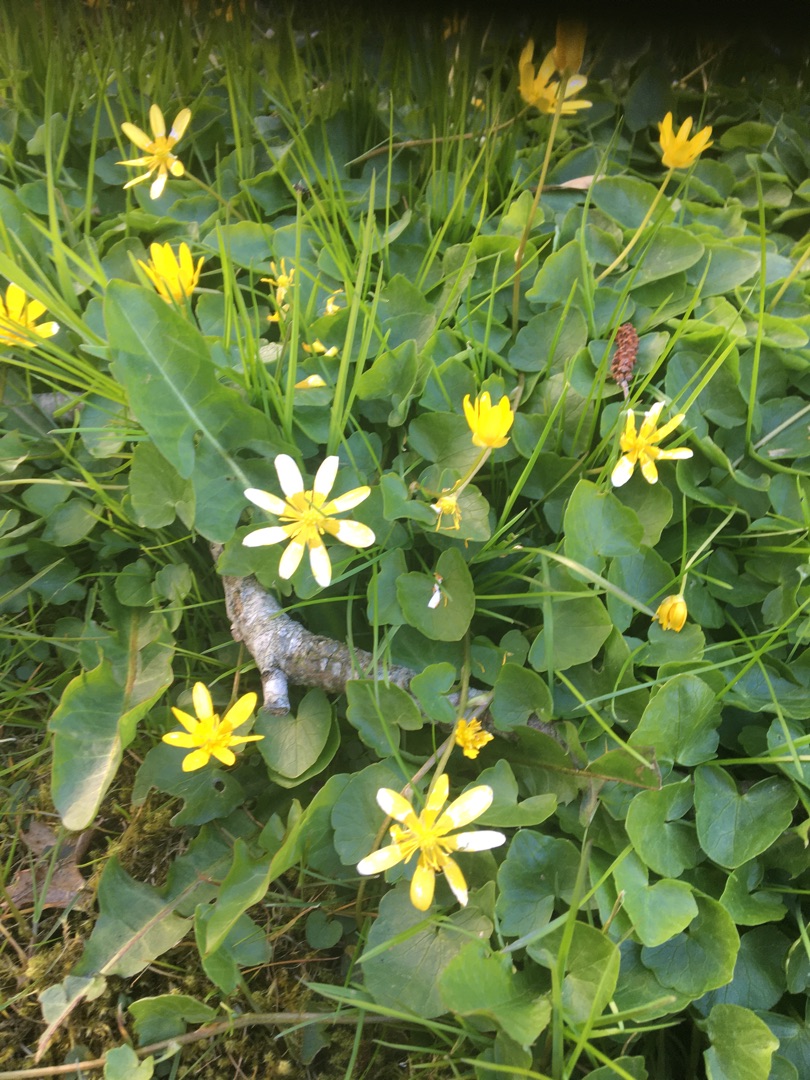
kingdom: Plantae
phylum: Tracheophyta
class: Magnoliopsida
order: Ranunculales
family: Ranunculaceae
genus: Ficaria
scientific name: Ficaria verna
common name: Vorterod
